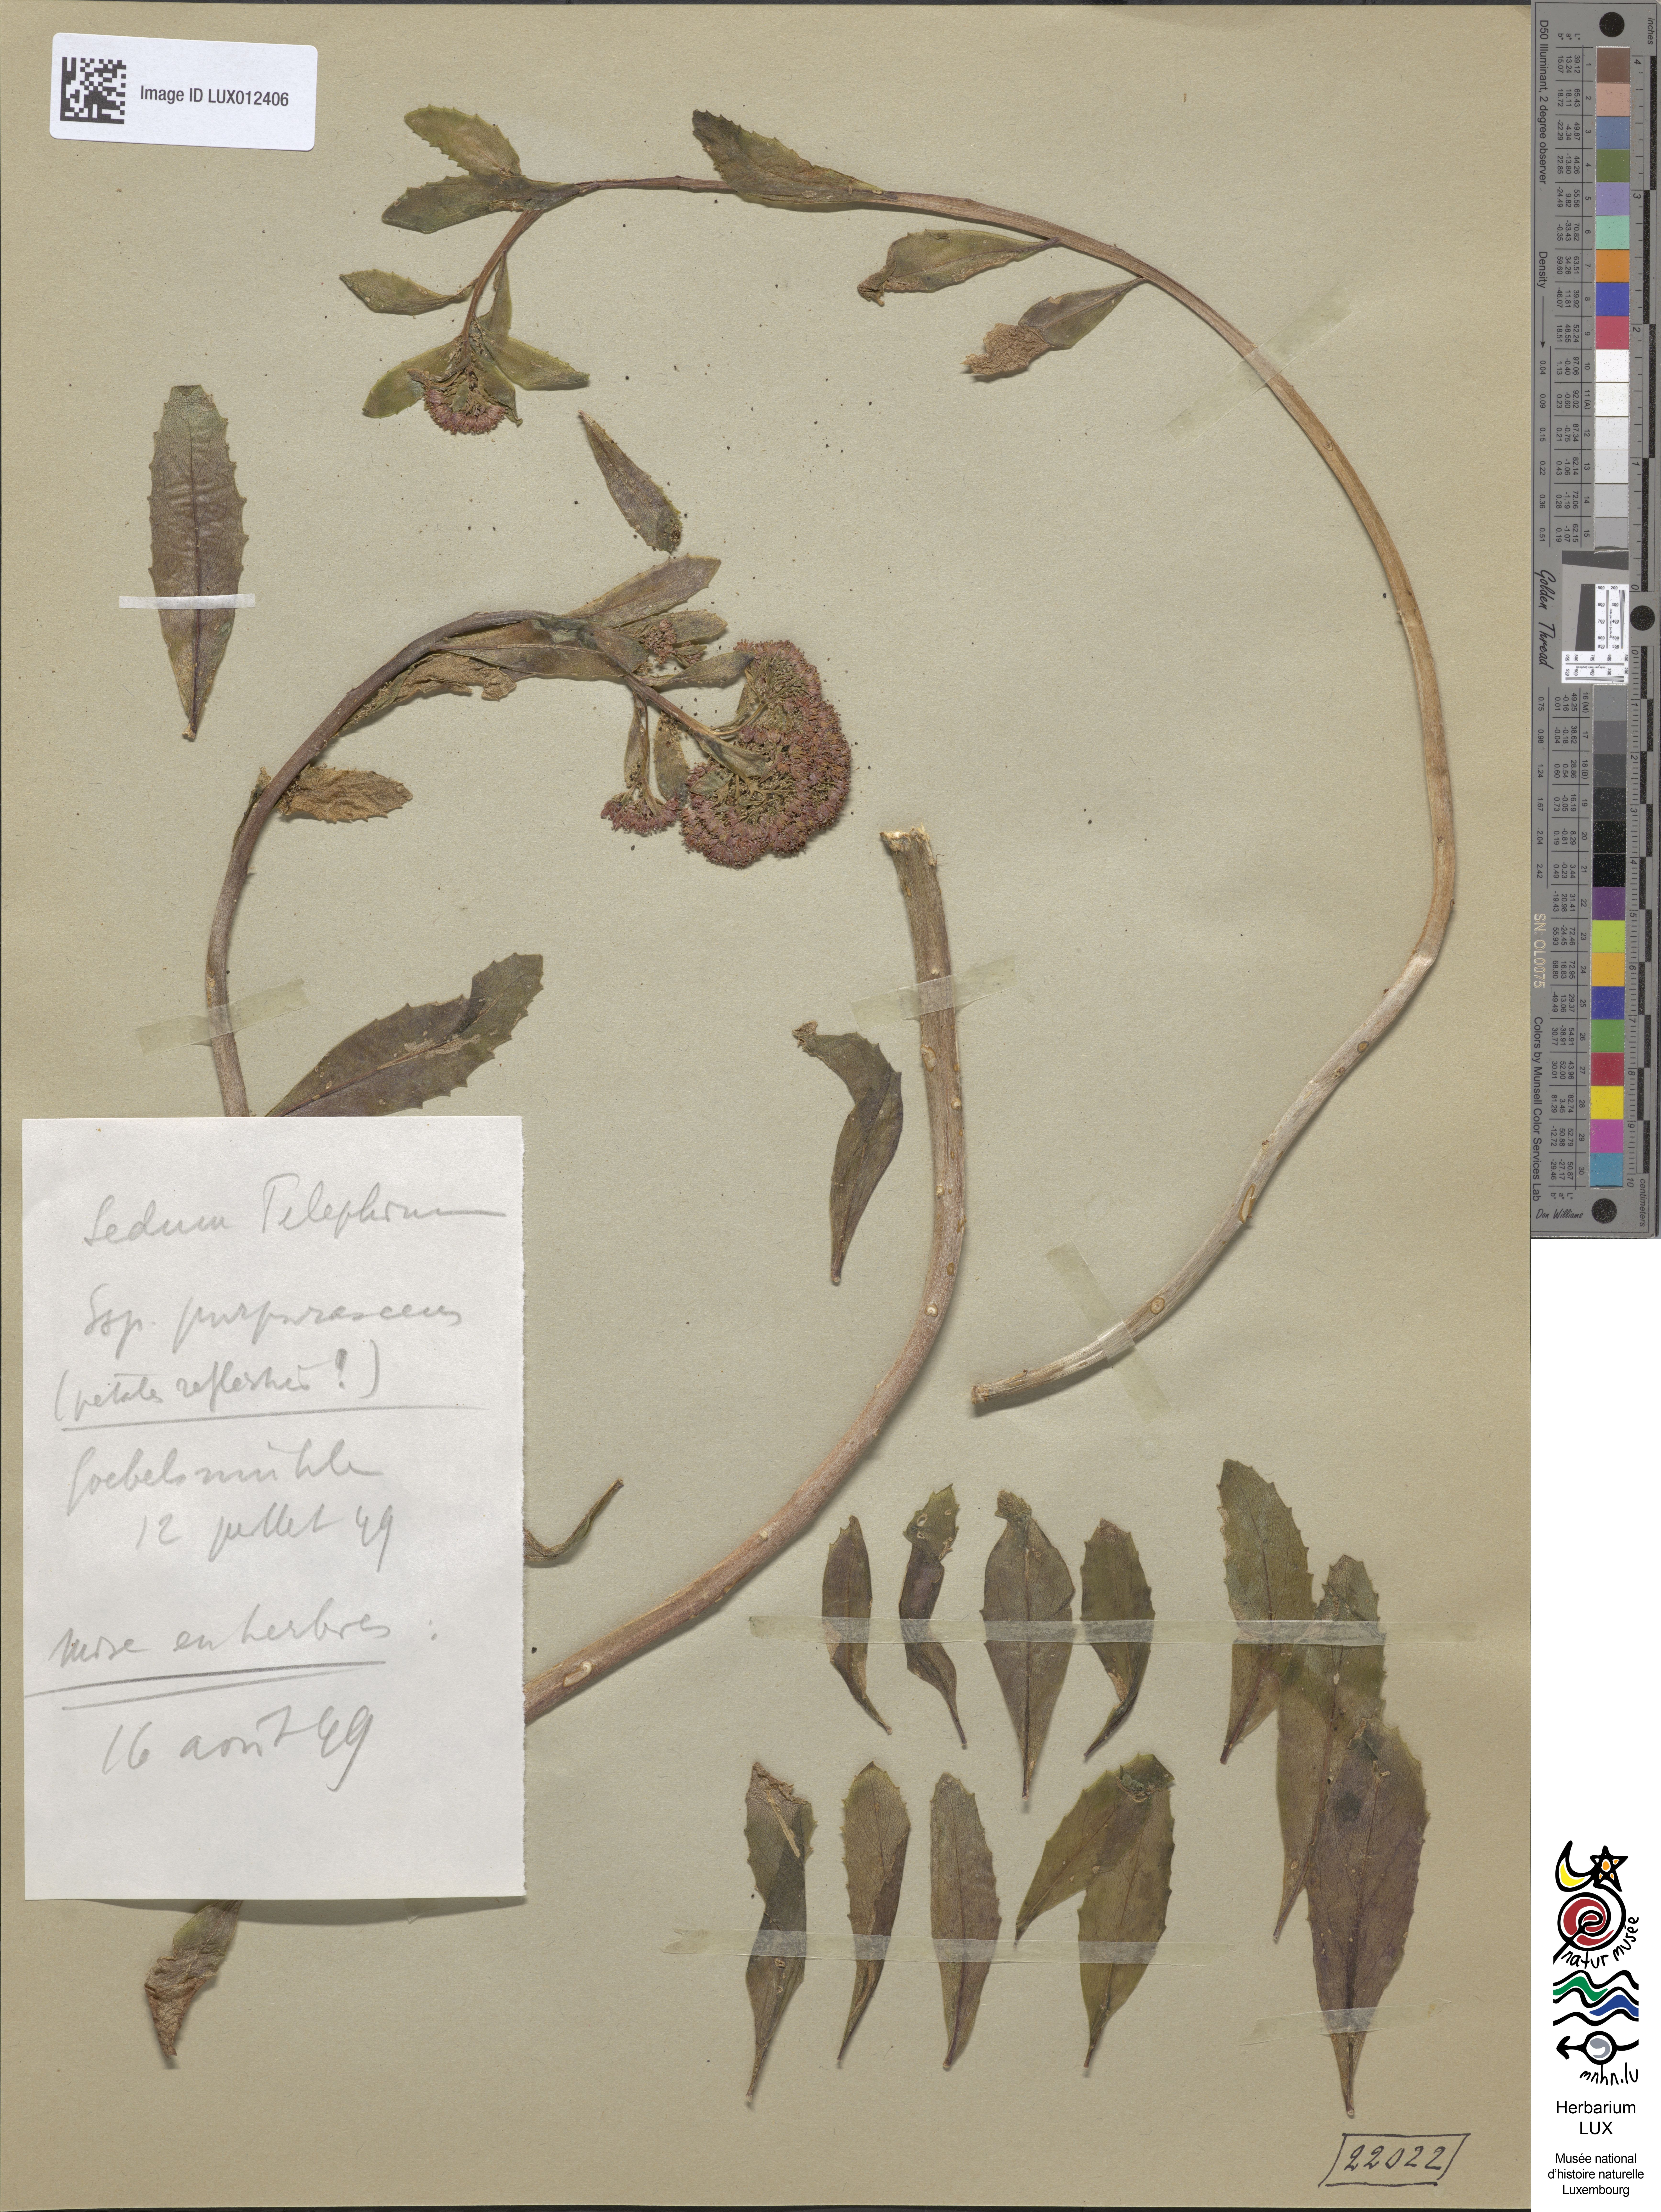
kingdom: Plantae
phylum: Tracheophyta
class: Magnoliopsida
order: Saxifragales
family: Crassulaceae
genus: Hylotelephium
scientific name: Hylotelephium telephium
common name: Live-forever
